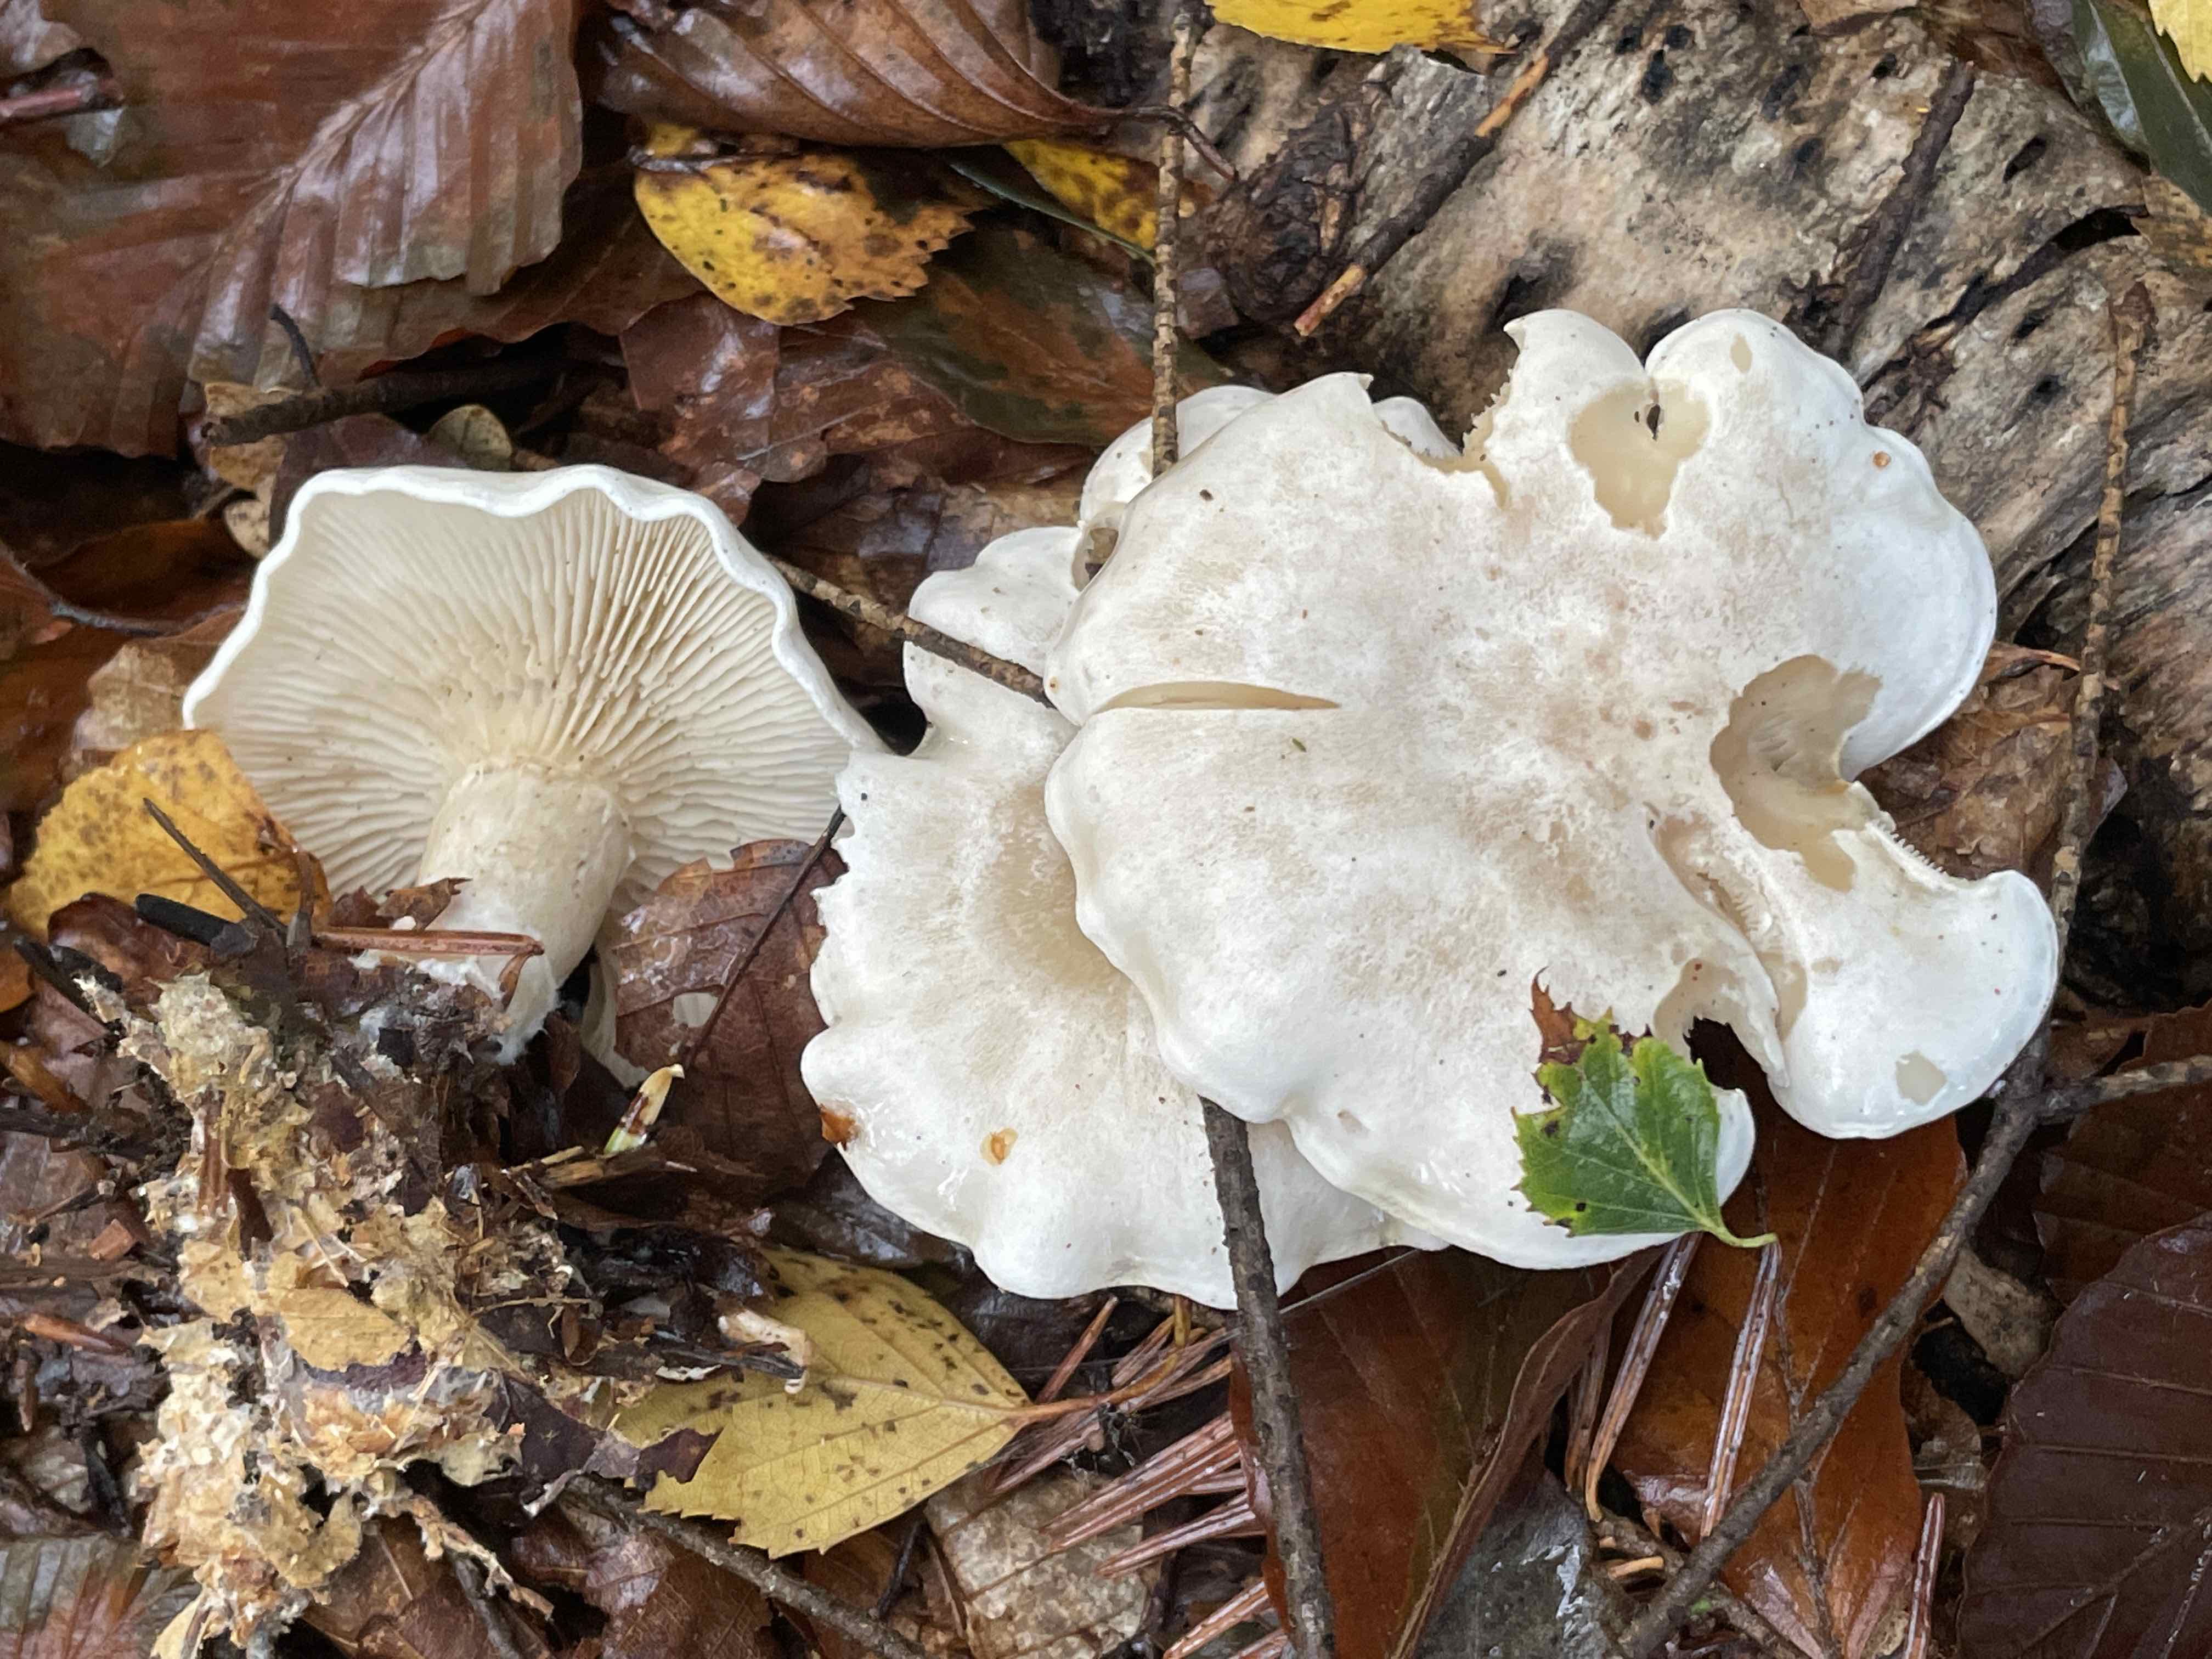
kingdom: Fungi
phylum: Basidiomycota
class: Agaricomycetes
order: Agaricales
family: Tricholomataceae
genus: Leucocybe
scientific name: Leucocybe connata
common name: knippe-tragthat
